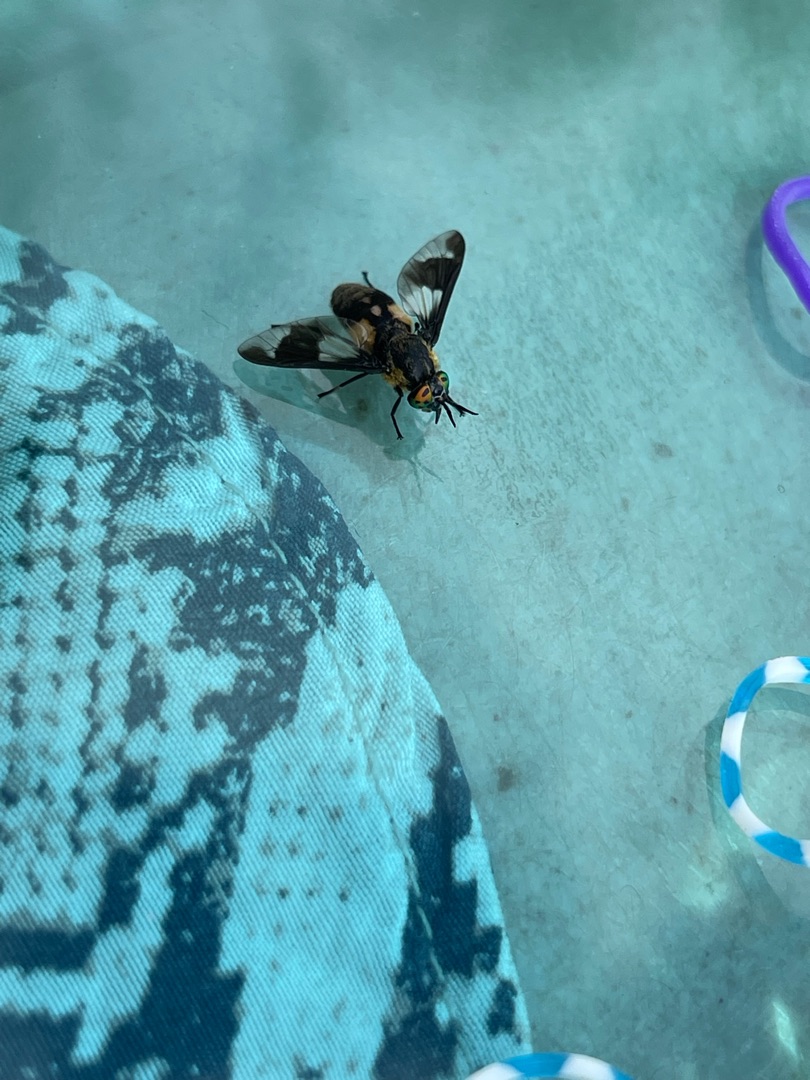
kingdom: Animalia
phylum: Arthropoda
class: Insecta
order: Diptera
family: Tabanidae
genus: Chrysops
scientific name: Chrysops caecutiens
